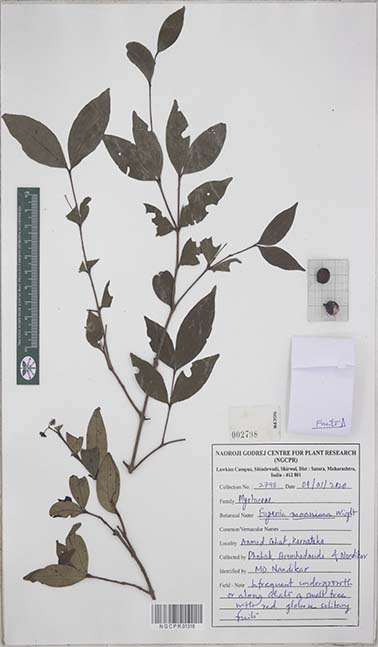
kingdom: Plantae
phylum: Tracheophyta
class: Magnoliopsida
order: Myrtales
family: Myrtaceae
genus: Eugenia
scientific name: Eugenia thwaitesii
